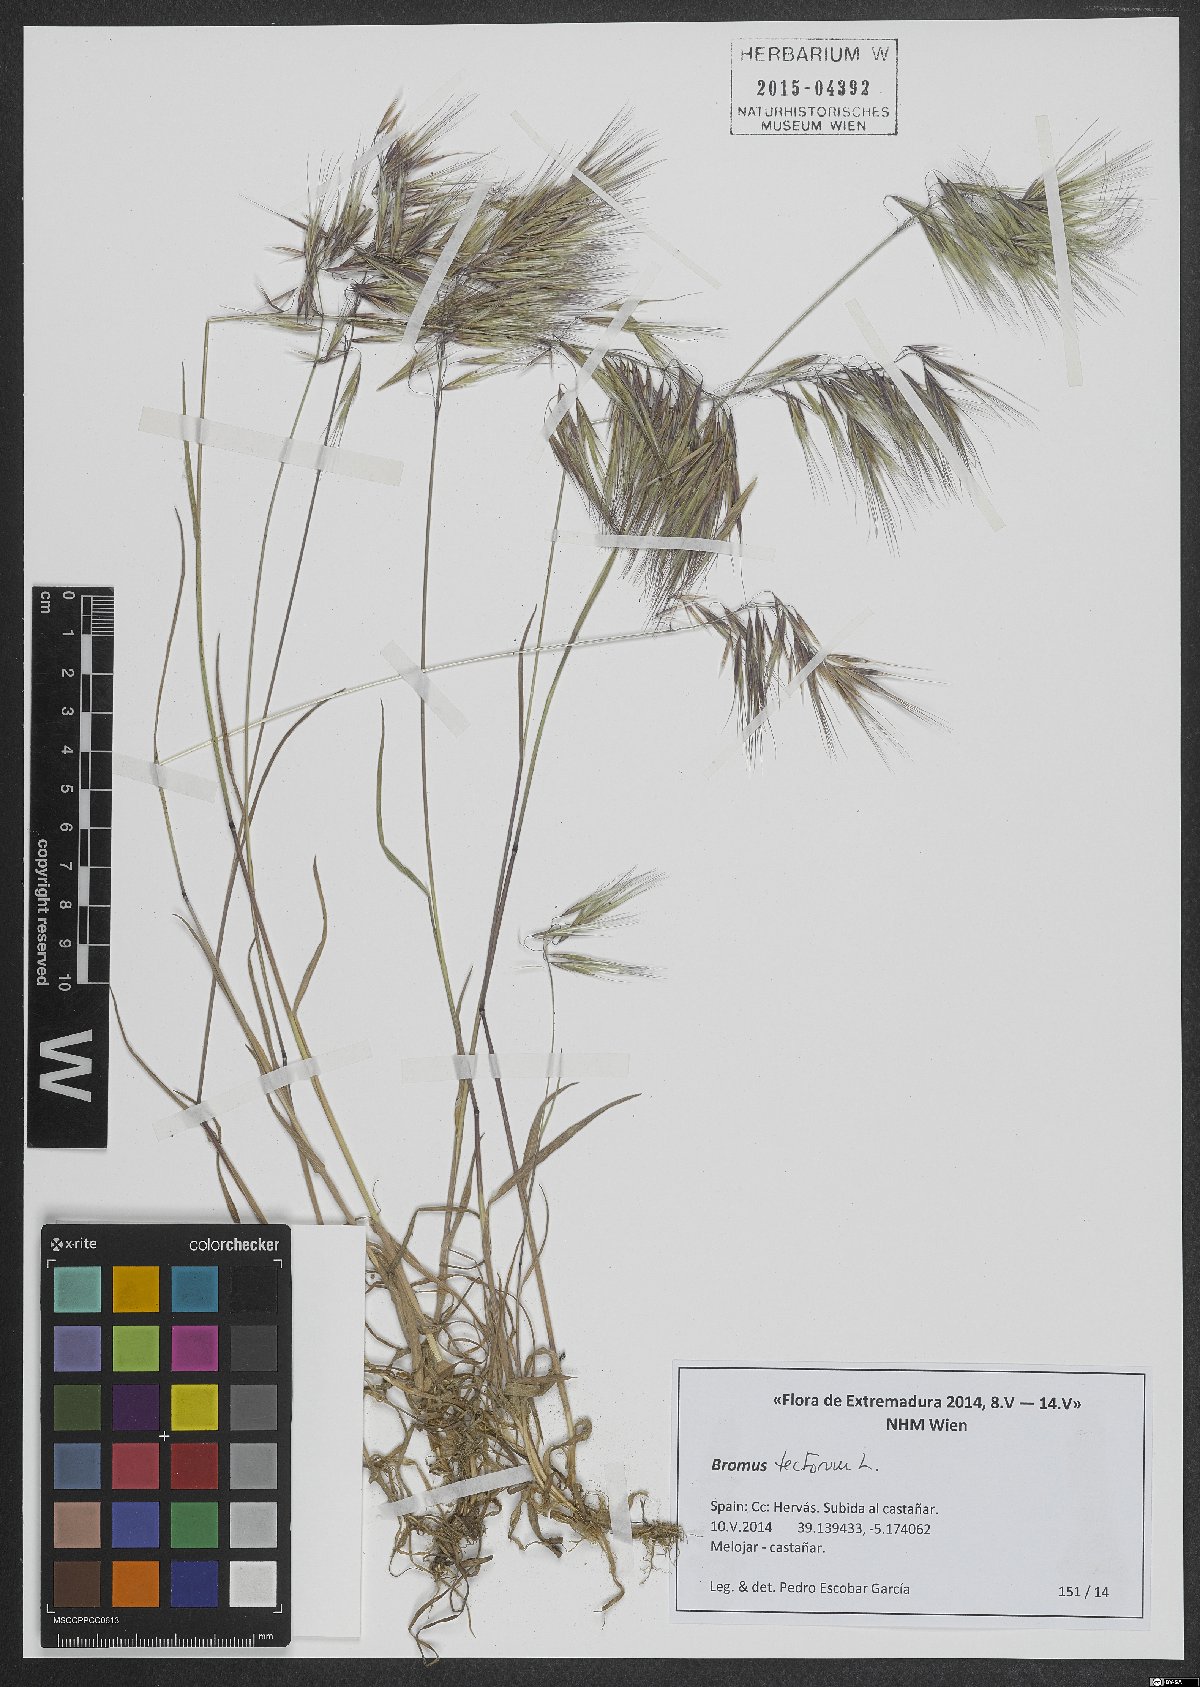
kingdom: Plantae
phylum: Tracheophyta
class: Liliopsida
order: Poales
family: Poaceae
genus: Bromus
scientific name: Bromus tectorum
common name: Cheatgrass
